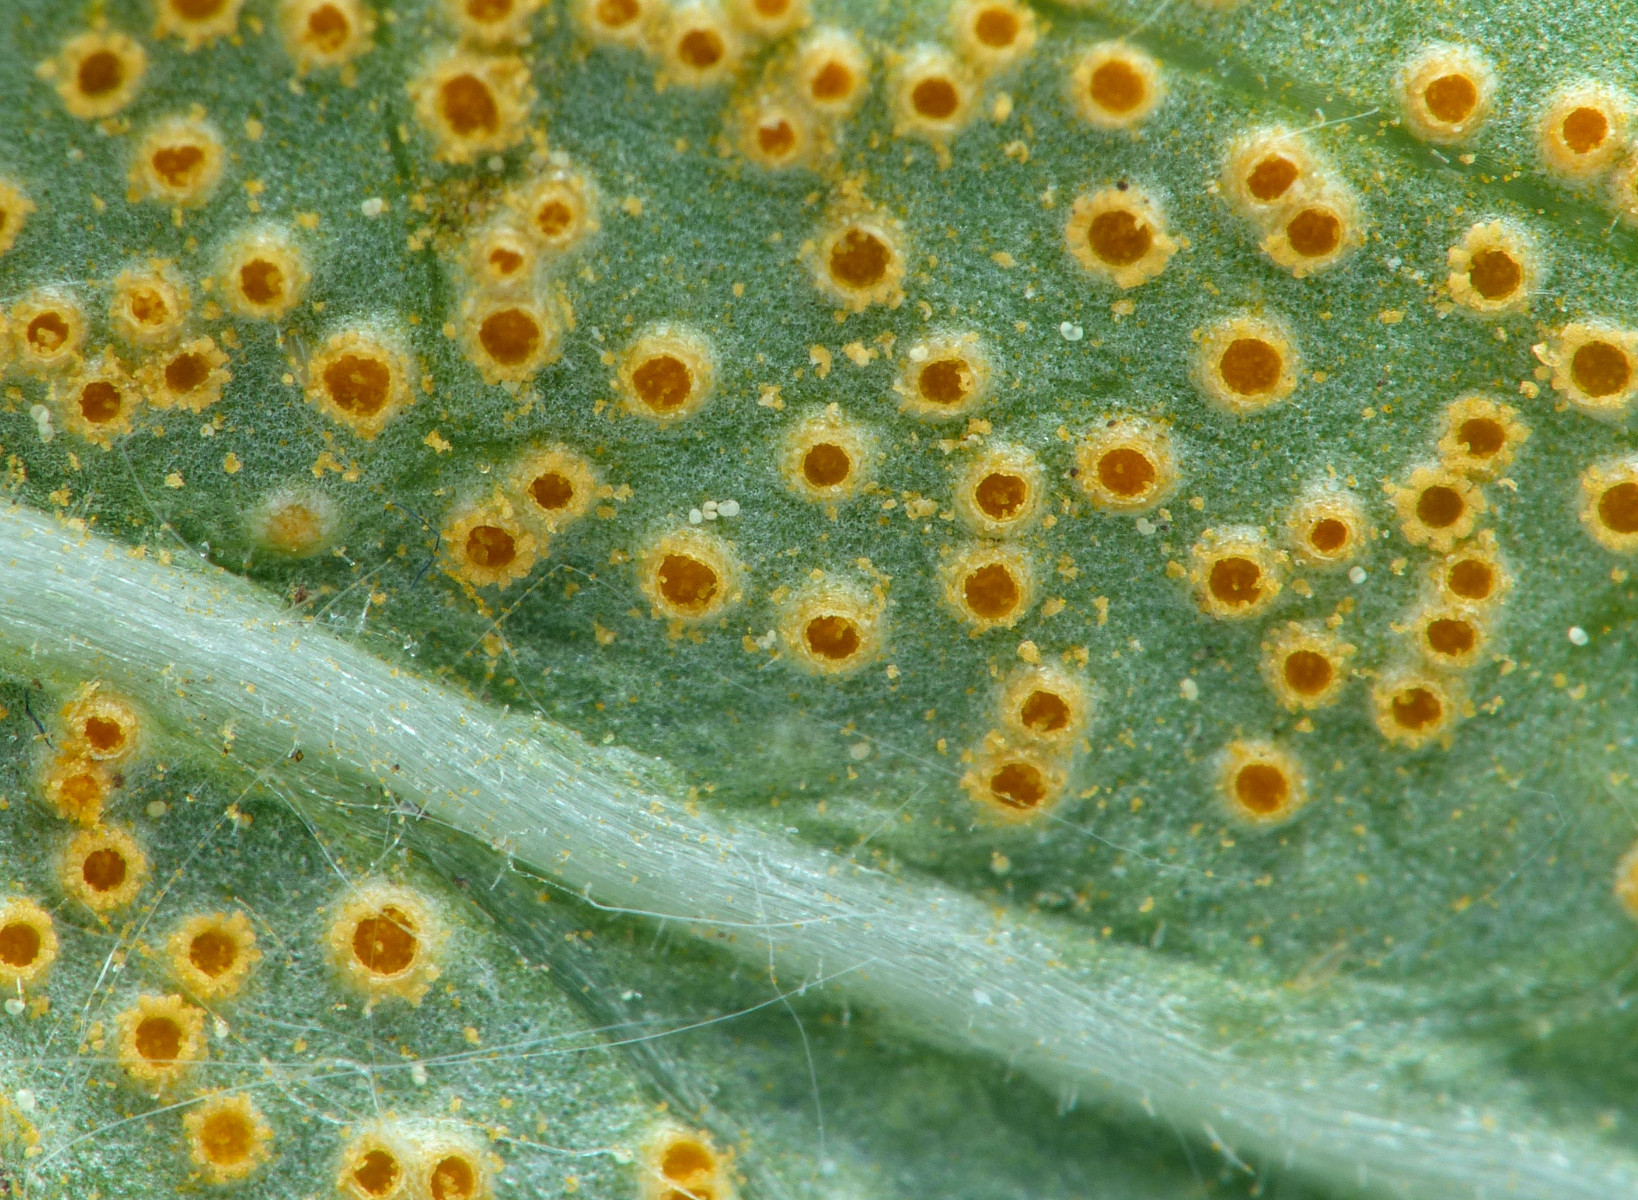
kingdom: Fungi
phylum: Basidiomycota
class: Pucciniomycetes
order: Pucciniales
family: Pucciniaceae
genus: Puccinia
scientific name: Puccinia pulverulenta
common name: dueurt-tvecellerust
